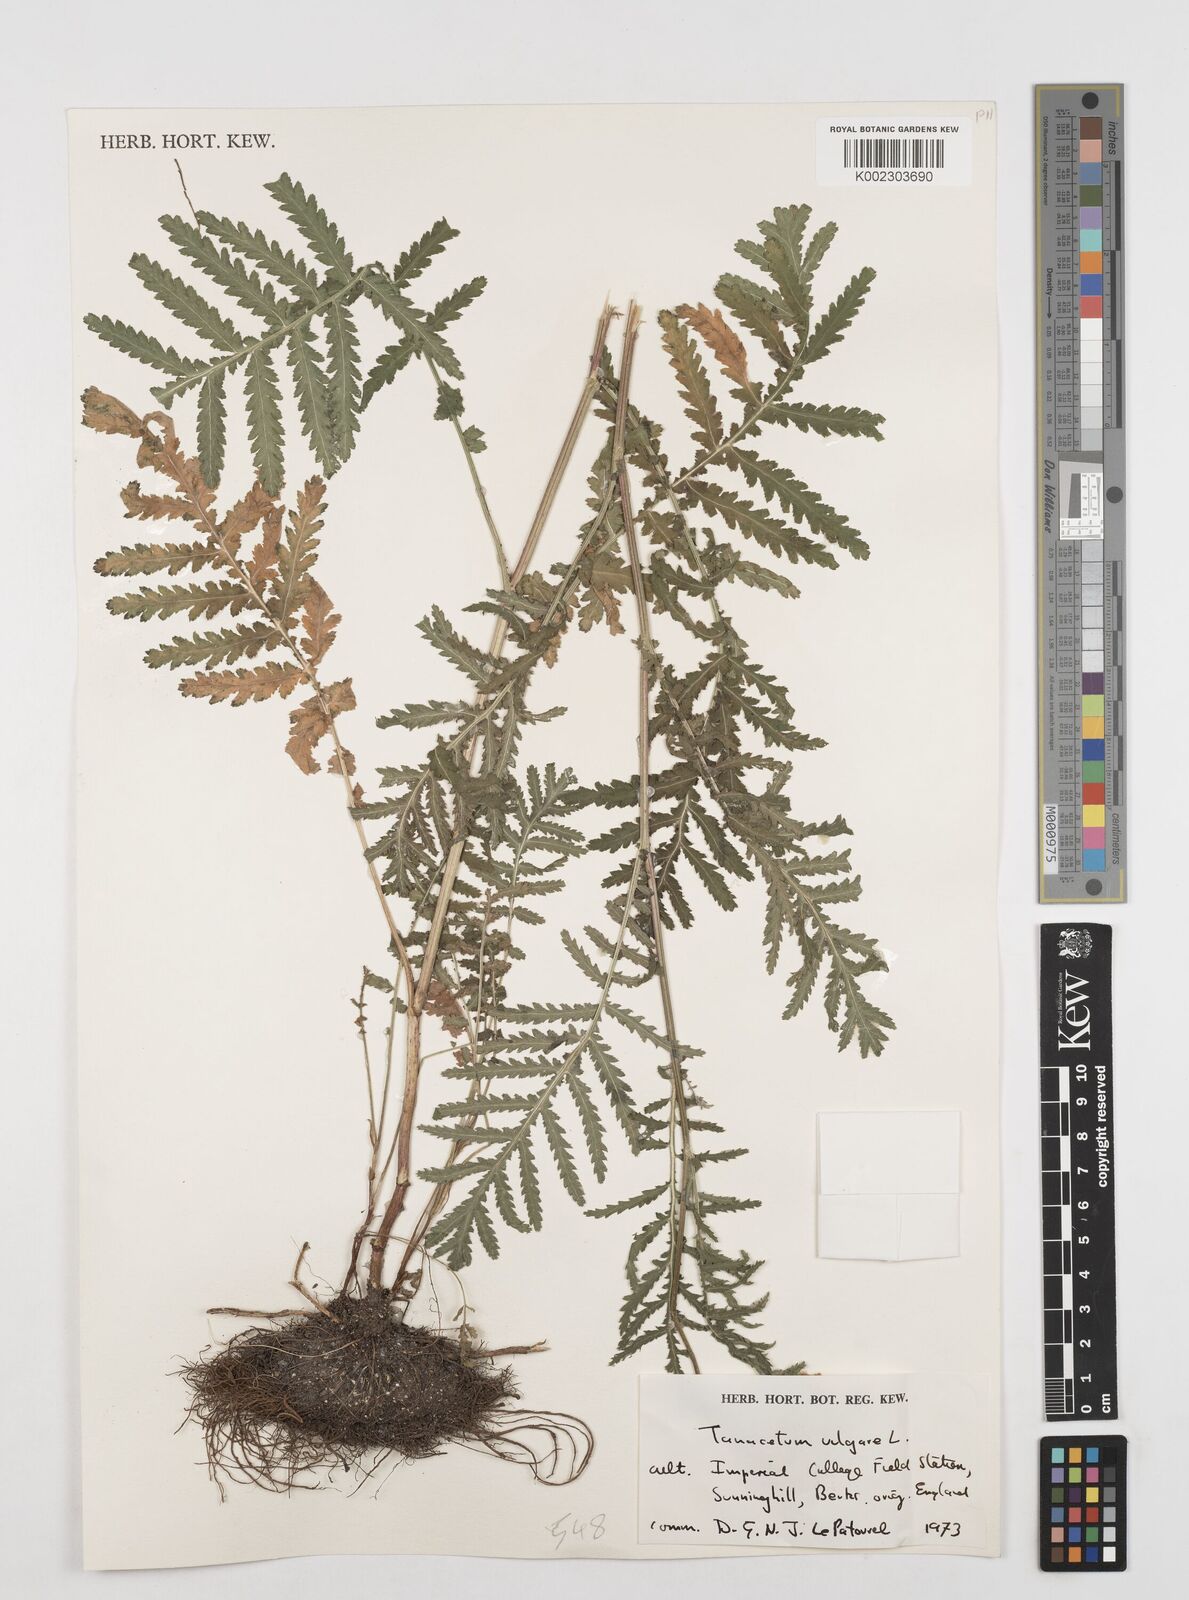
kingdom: Plantae
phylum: Tracheophyta
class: Magnoliopsida
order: Asterales
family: Asteraceae
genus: Tanacetum
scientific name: Tanacetum vulgare
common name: Common tansy
